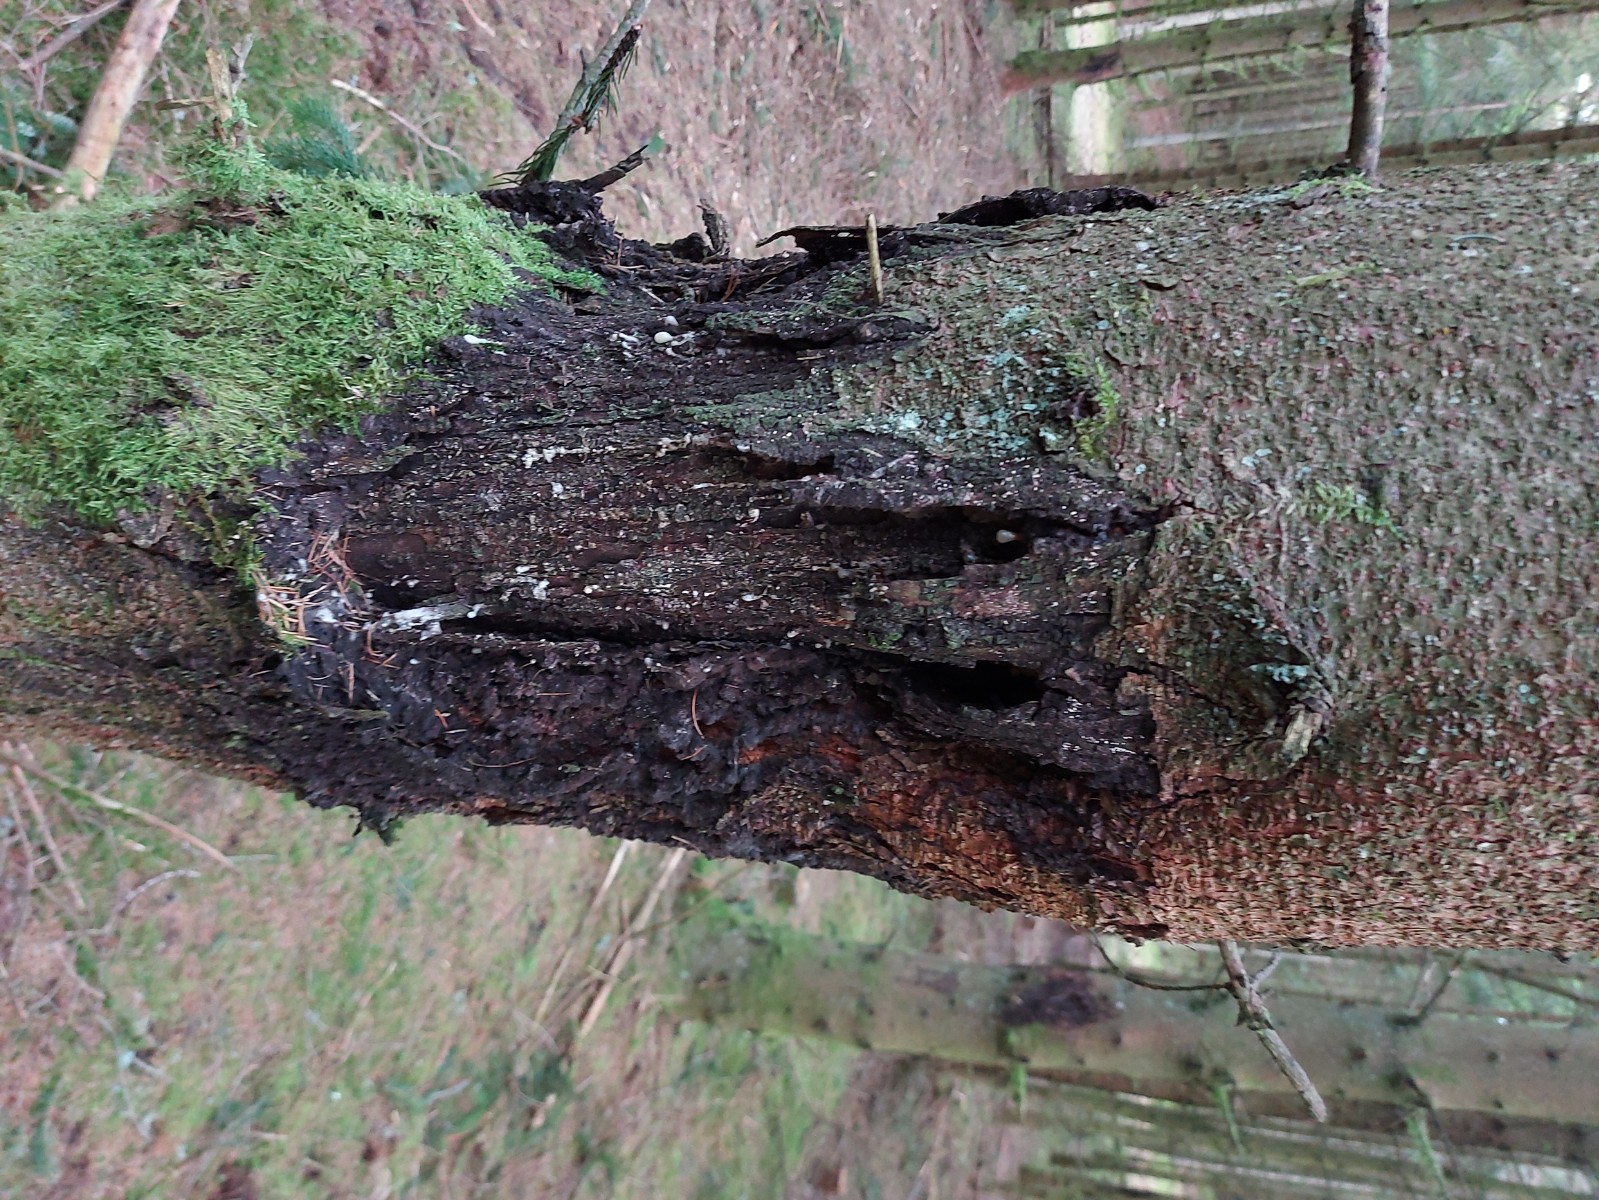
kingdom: Fungi
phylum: Ascomycota
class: Sordariomycetes
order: Hypocreales
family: Nectriaceae
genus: Corinectria
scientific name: Corinectria fuckeliana
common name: grankræft-cinnobersvamp
